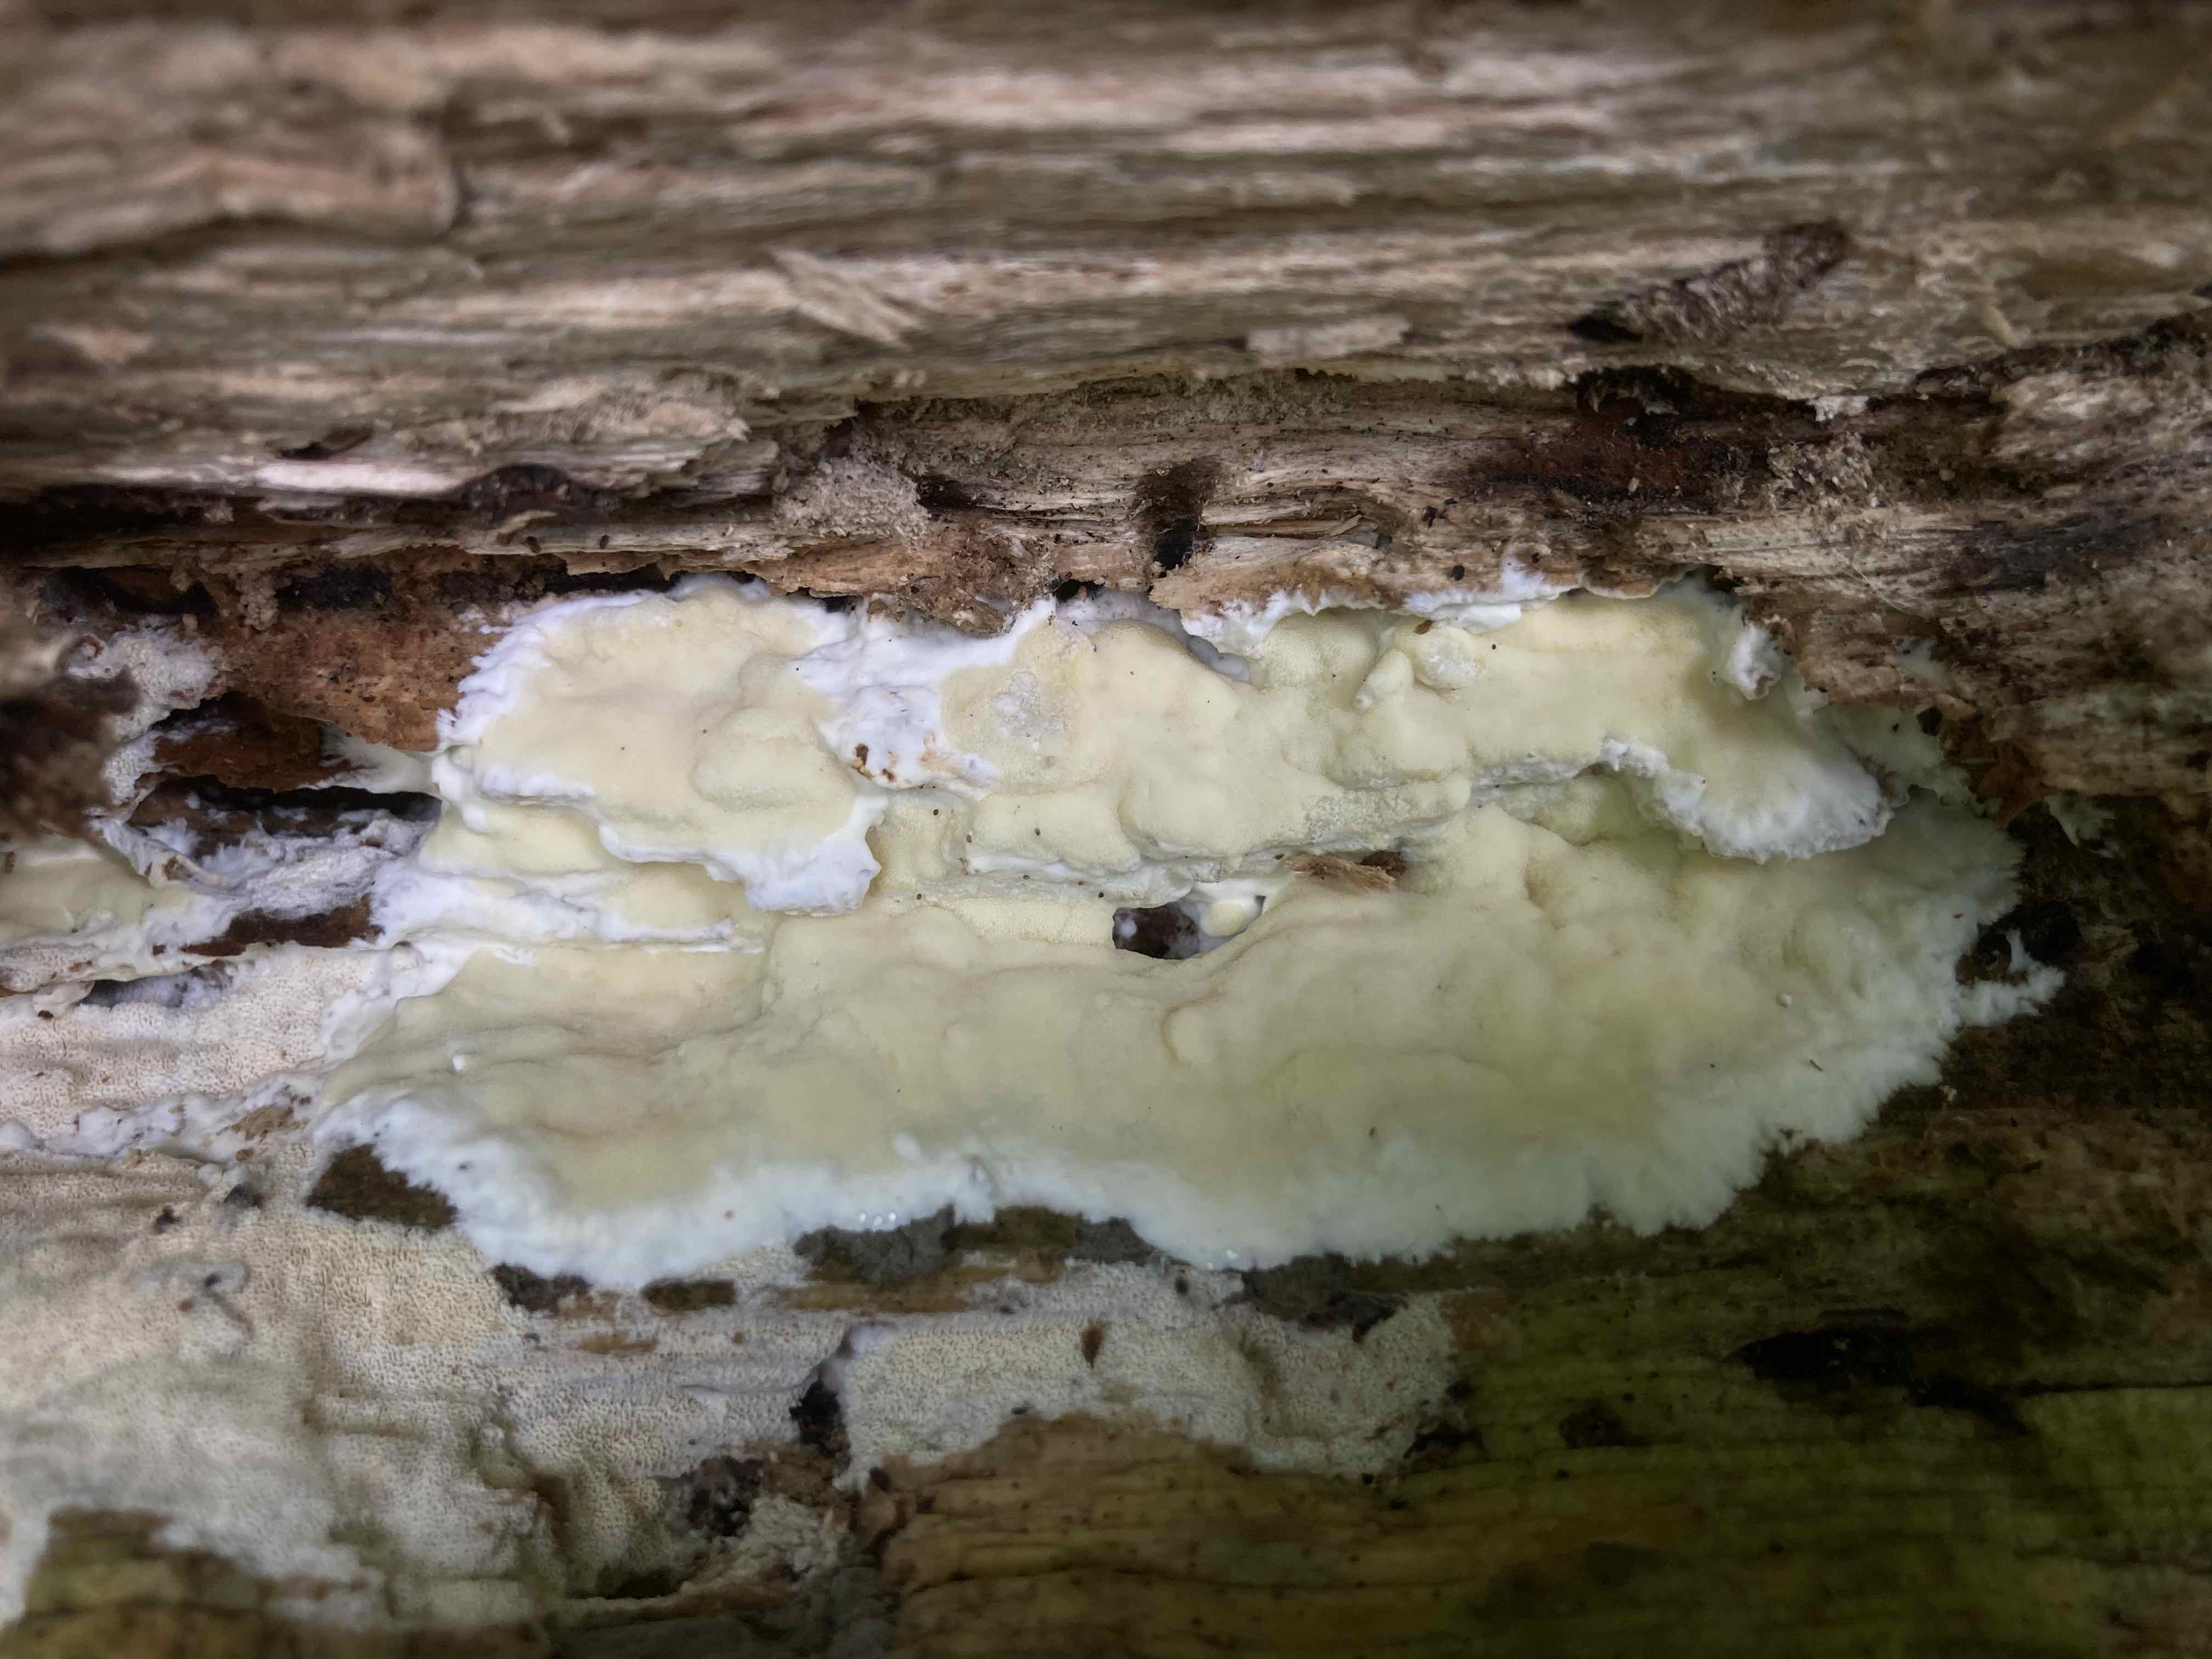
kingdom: Fungi
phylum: Basidiomycota
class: Agaricomycetes
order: Polyporales
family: Irpicaceae
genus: Gloeoporus
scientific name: Gloeoporus pannocinctus
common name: grøngul foldporesvamp
